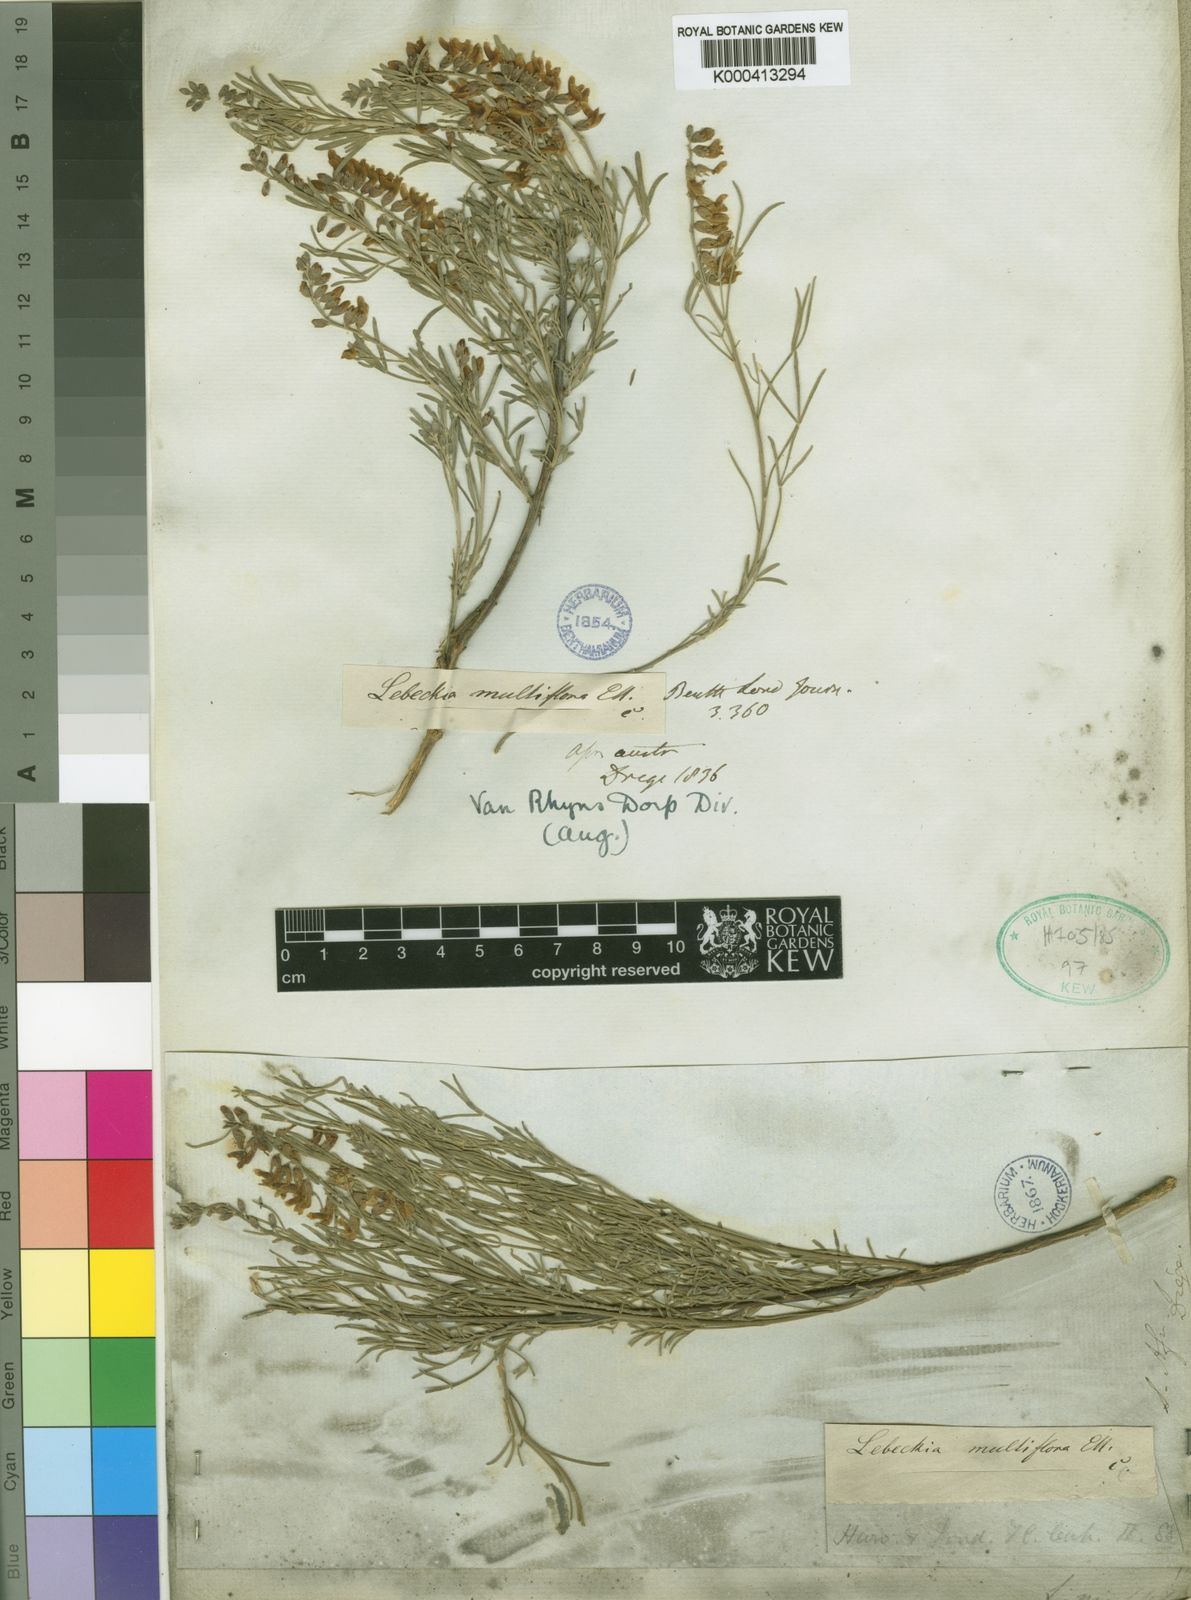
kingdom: Plantae
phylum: Tracheophyta
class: Magnoliopsida
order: Fabales
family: Fabaceae
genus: Calobota
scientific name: Calobota angustifolia
